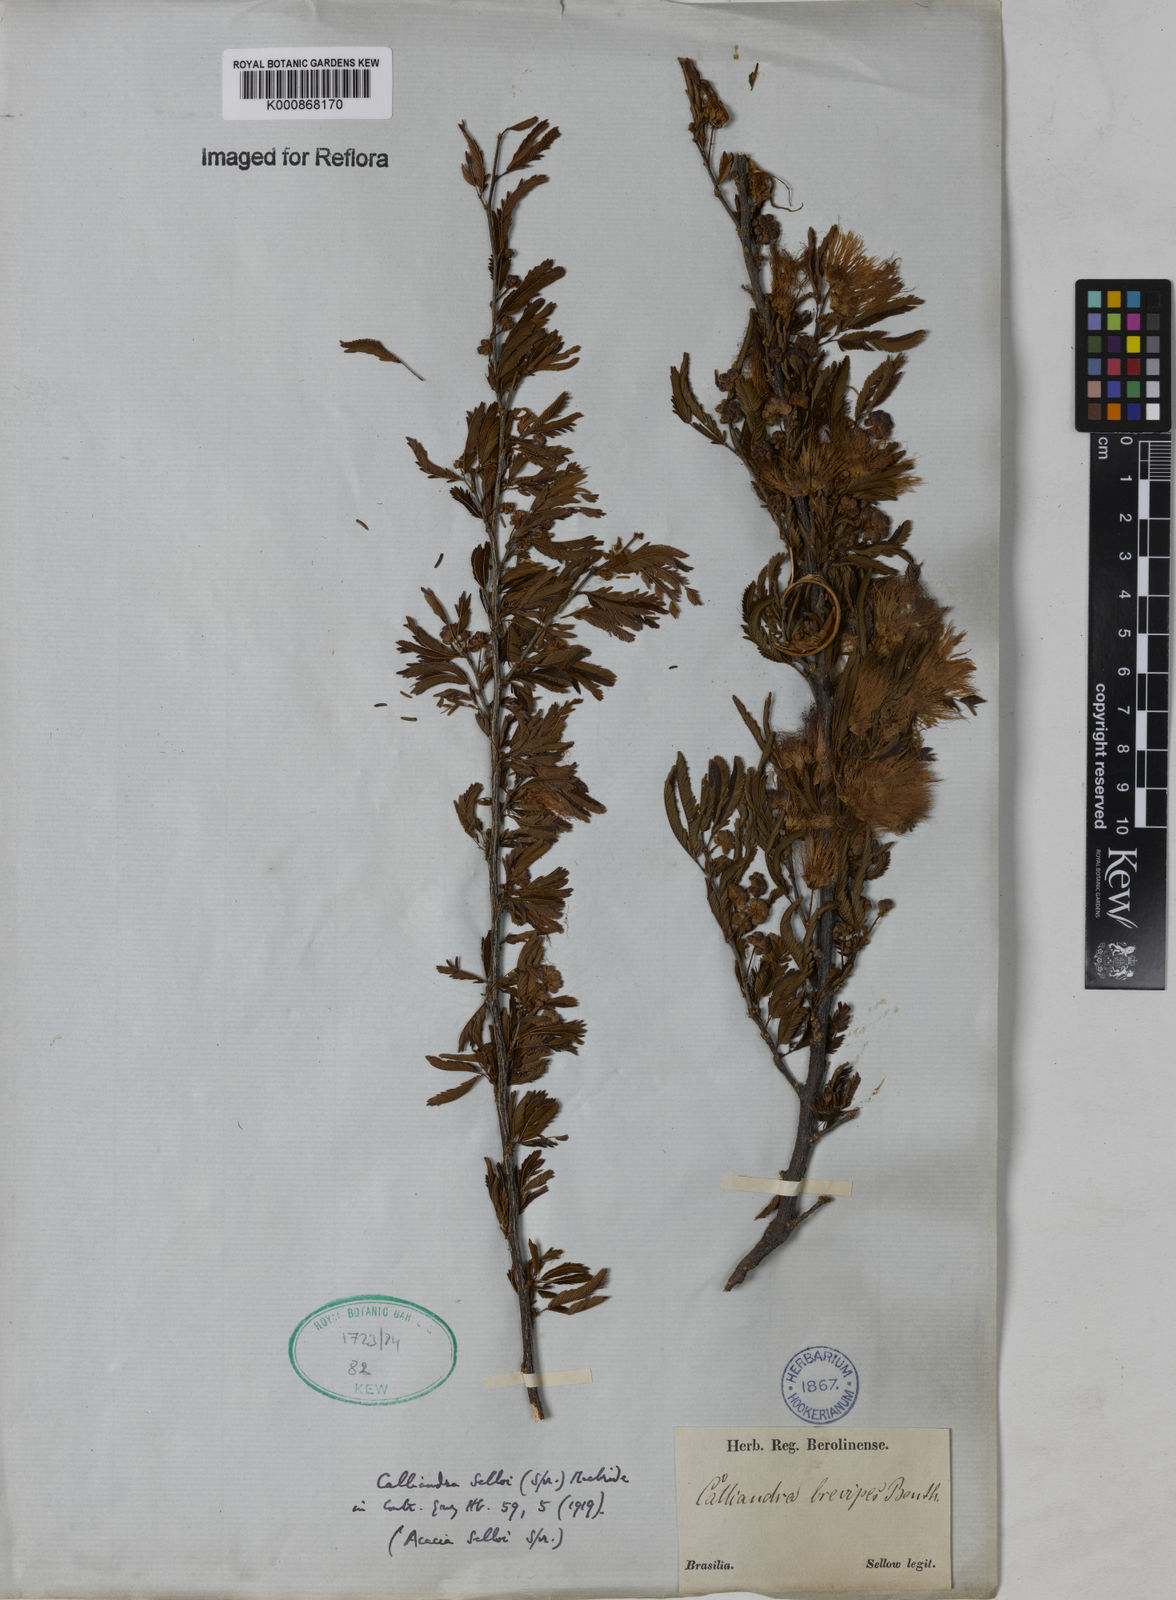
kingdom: Plantae
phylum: Tracheophyta
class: Magnoliopsida
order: Fabales
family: Fabaceae
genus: Calliandra
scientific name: Calliandra selloi
